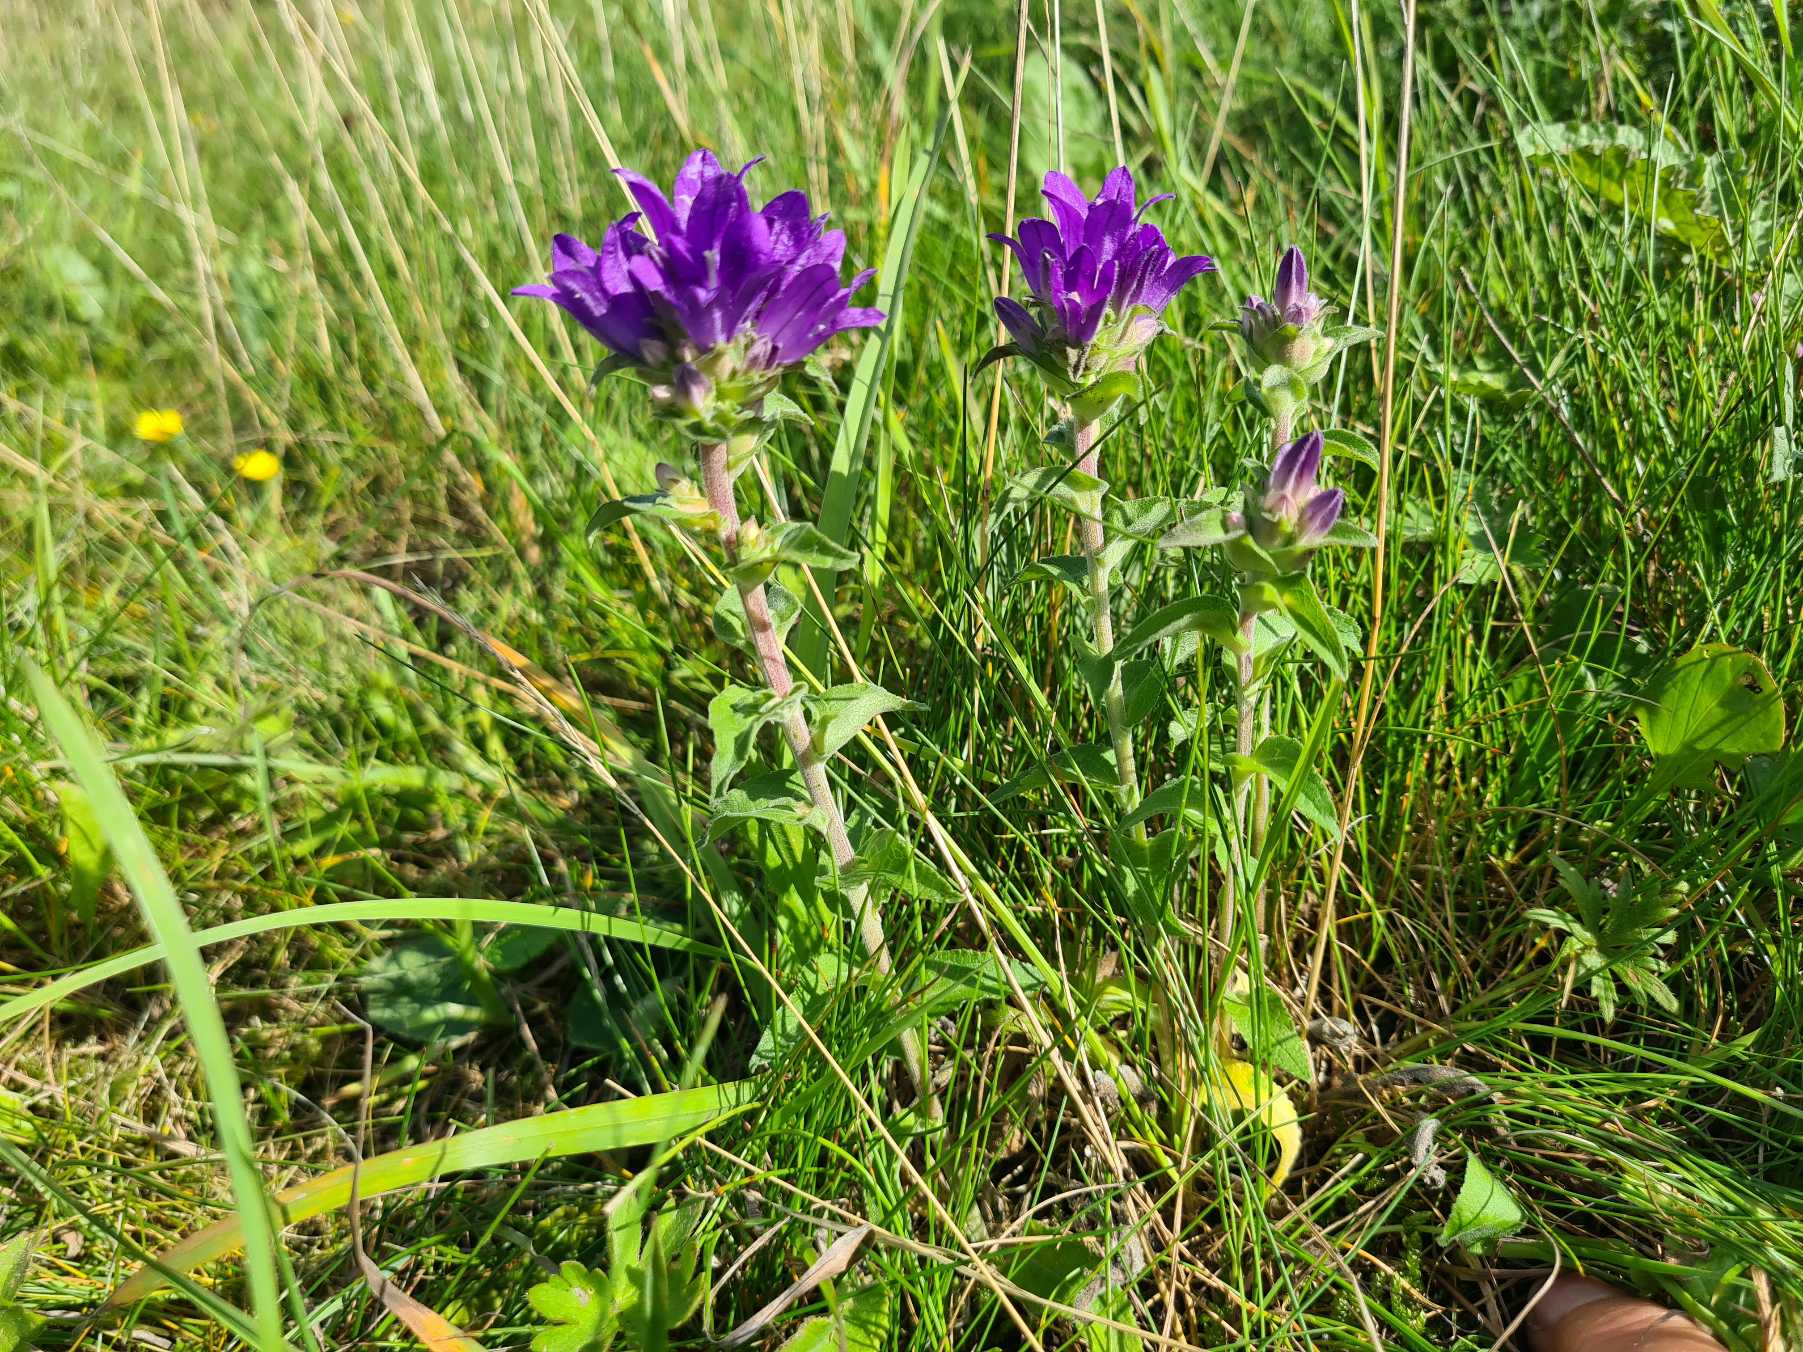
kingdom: Plantae
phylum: Tracheophyta
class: Magnoliopsida
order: Asterales
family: Campanulaceae
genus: Campanula
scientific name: Campanula glomerata
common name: Nøgleblomstret klokke
